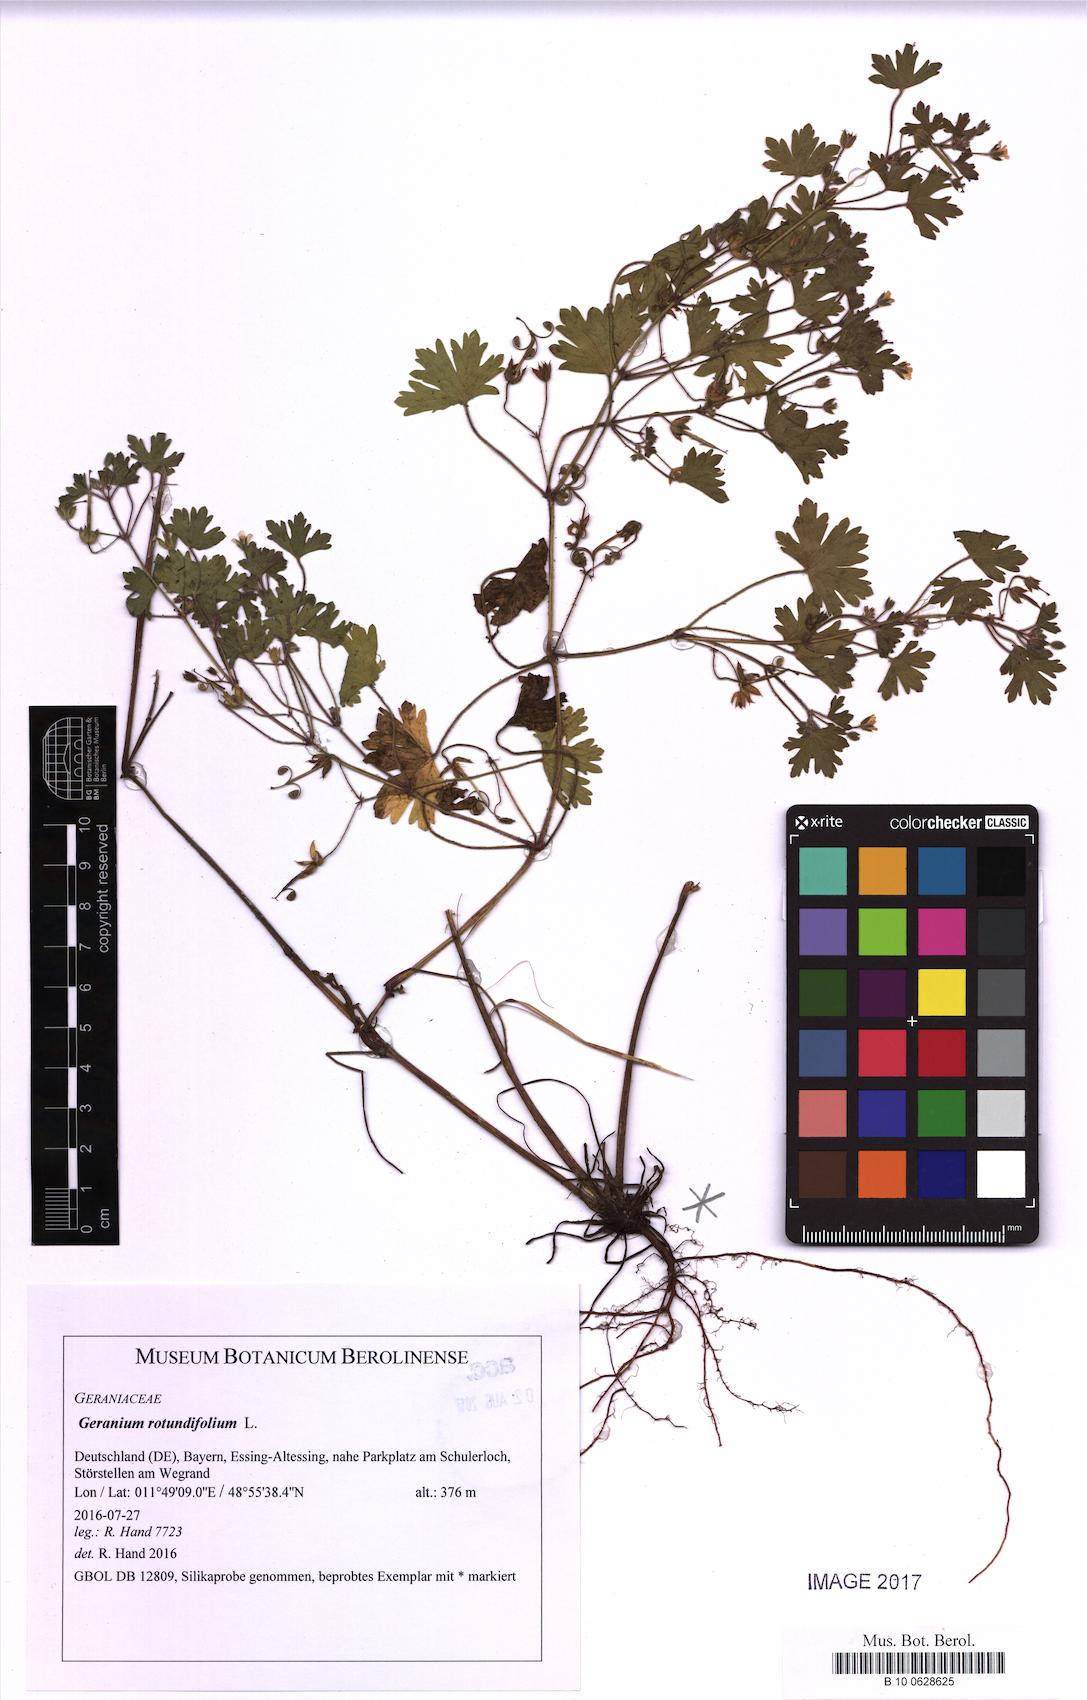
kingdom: Plantae
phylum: Tracheophyta
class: Magnoliopsida
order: Geraniales
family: Geraniaceae
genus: Geranium
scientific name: Geranium rotundifolium
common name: Round-leaved crane's-bill
